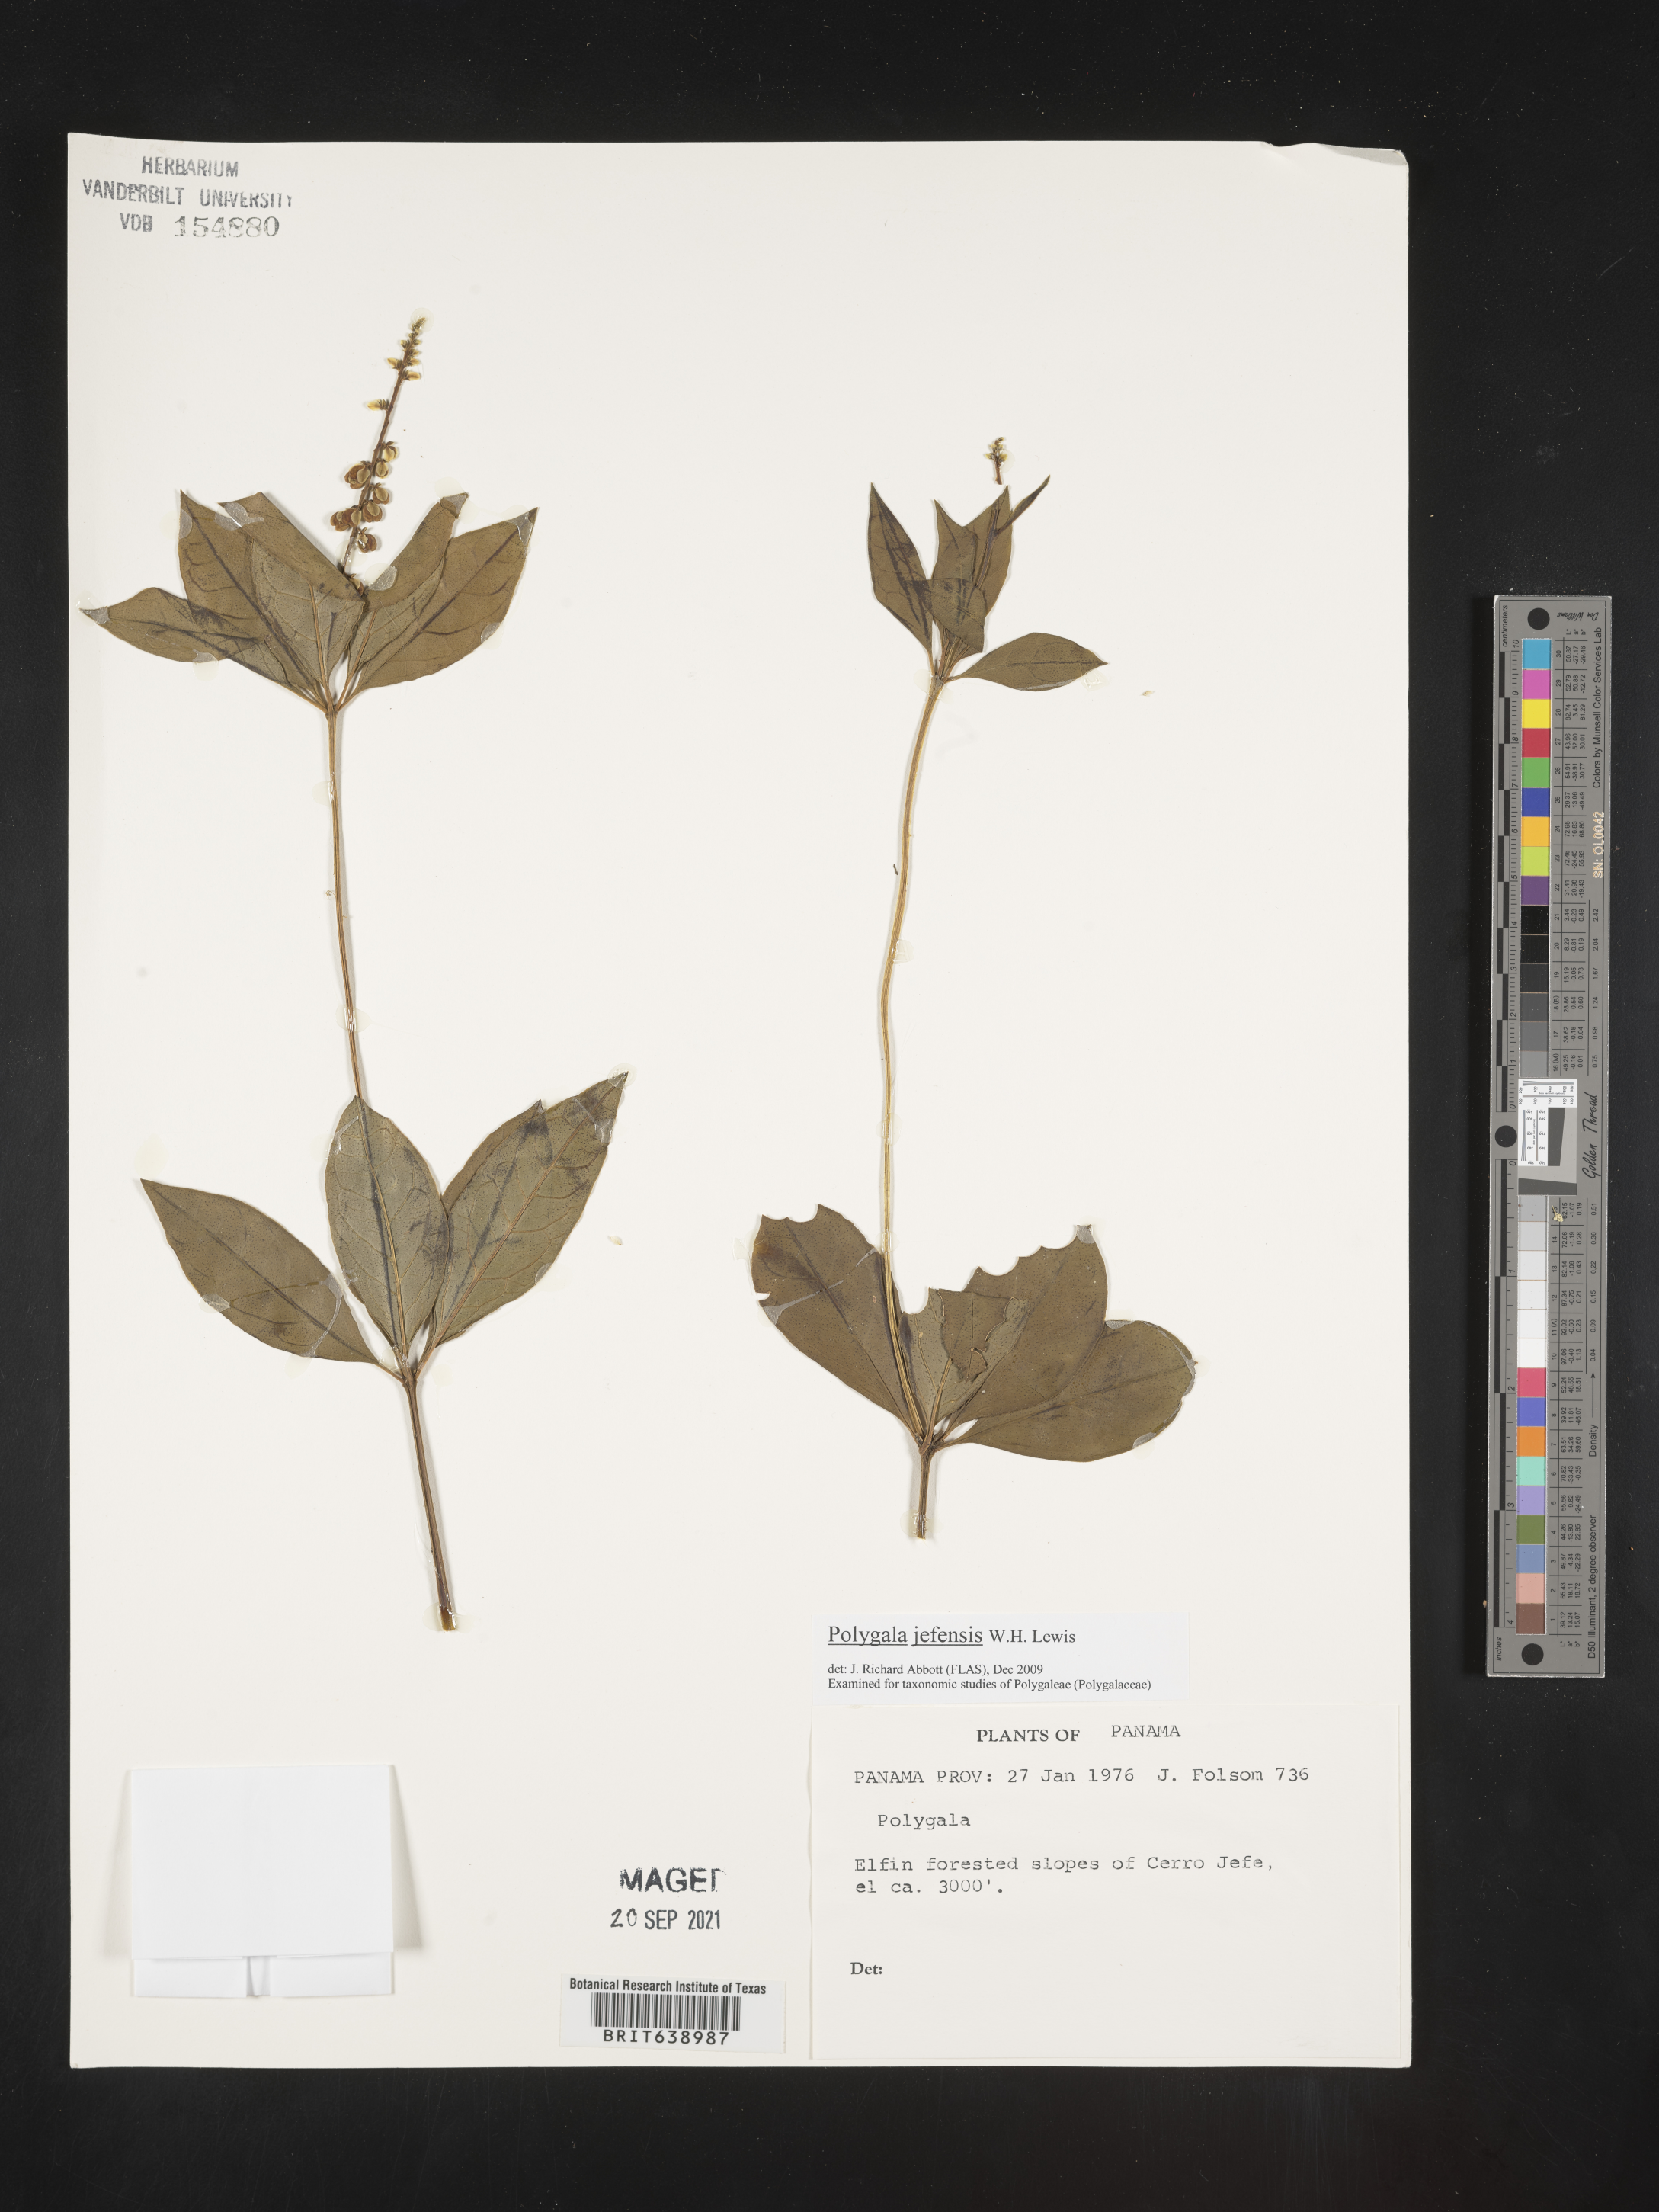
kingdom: Plantae
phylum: Tracheophyta
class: Magnoliopsida
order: Fabales
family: Polygalaceae
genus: Polygala
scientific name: Polygala
